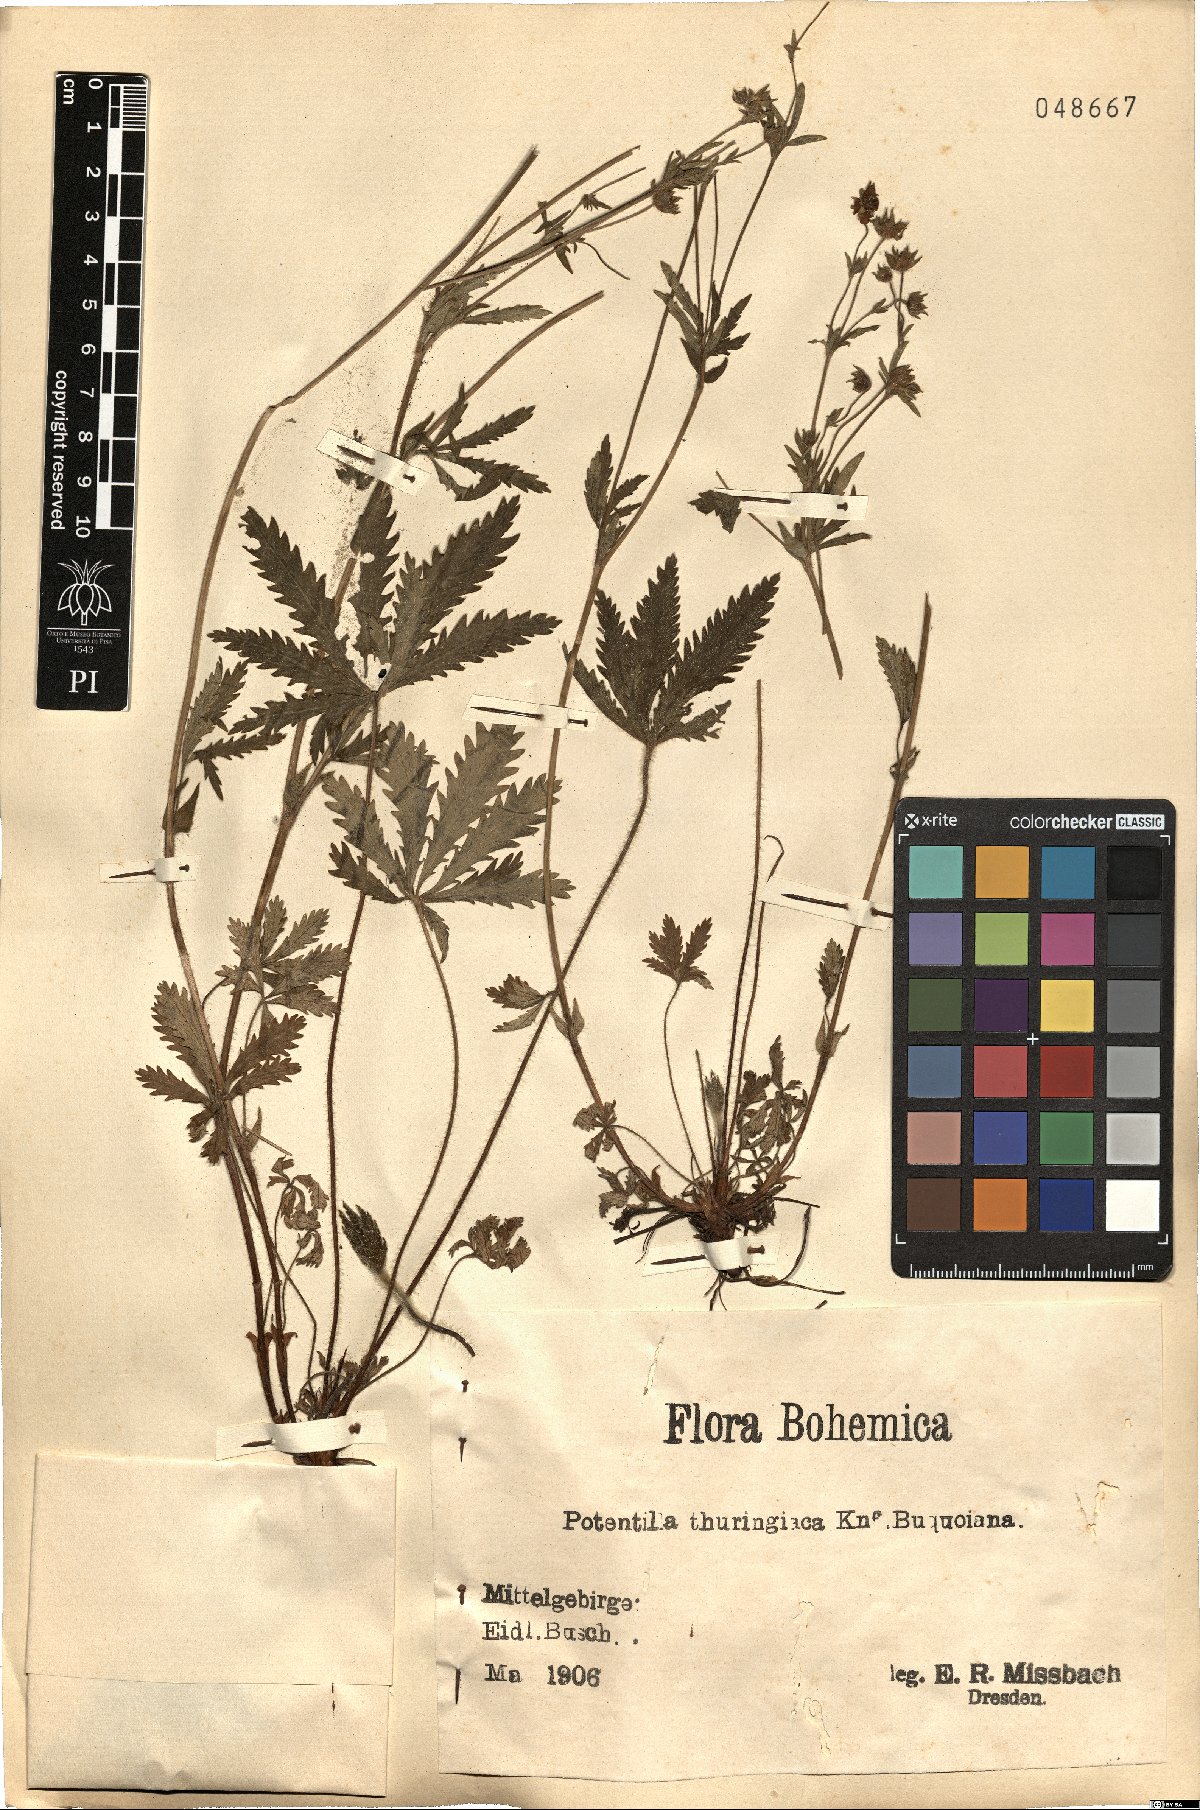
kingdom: Plantae
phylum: Tracheophyta
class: Magnoliopsida
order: Rosales
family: Rosaceae
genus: Potentilla
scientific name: Potentilla thuringiaca
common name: European cinquefoil
